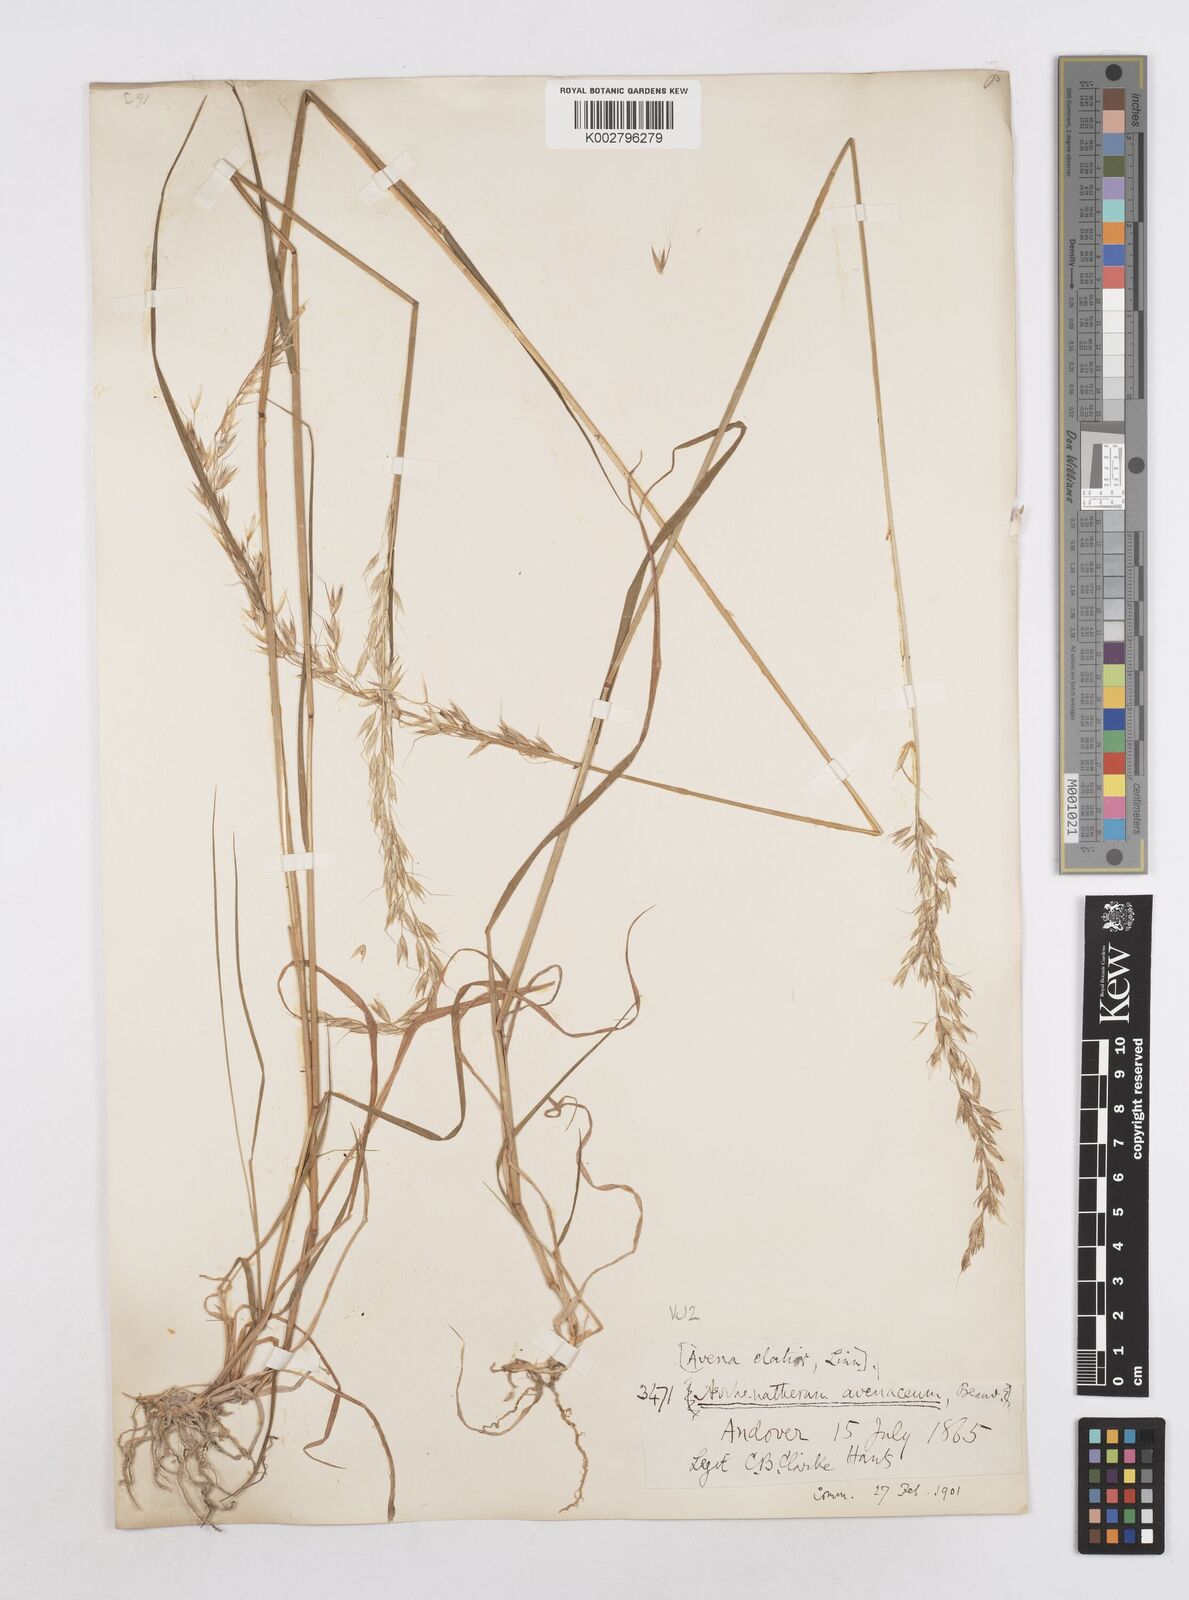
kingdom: Plantae
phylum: Tracheophyta
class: Liliopsida
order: Poales
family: Poaceae
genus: Arrhenatherum
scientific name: Arrhenatherum elatius
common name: Tall oatgrass
